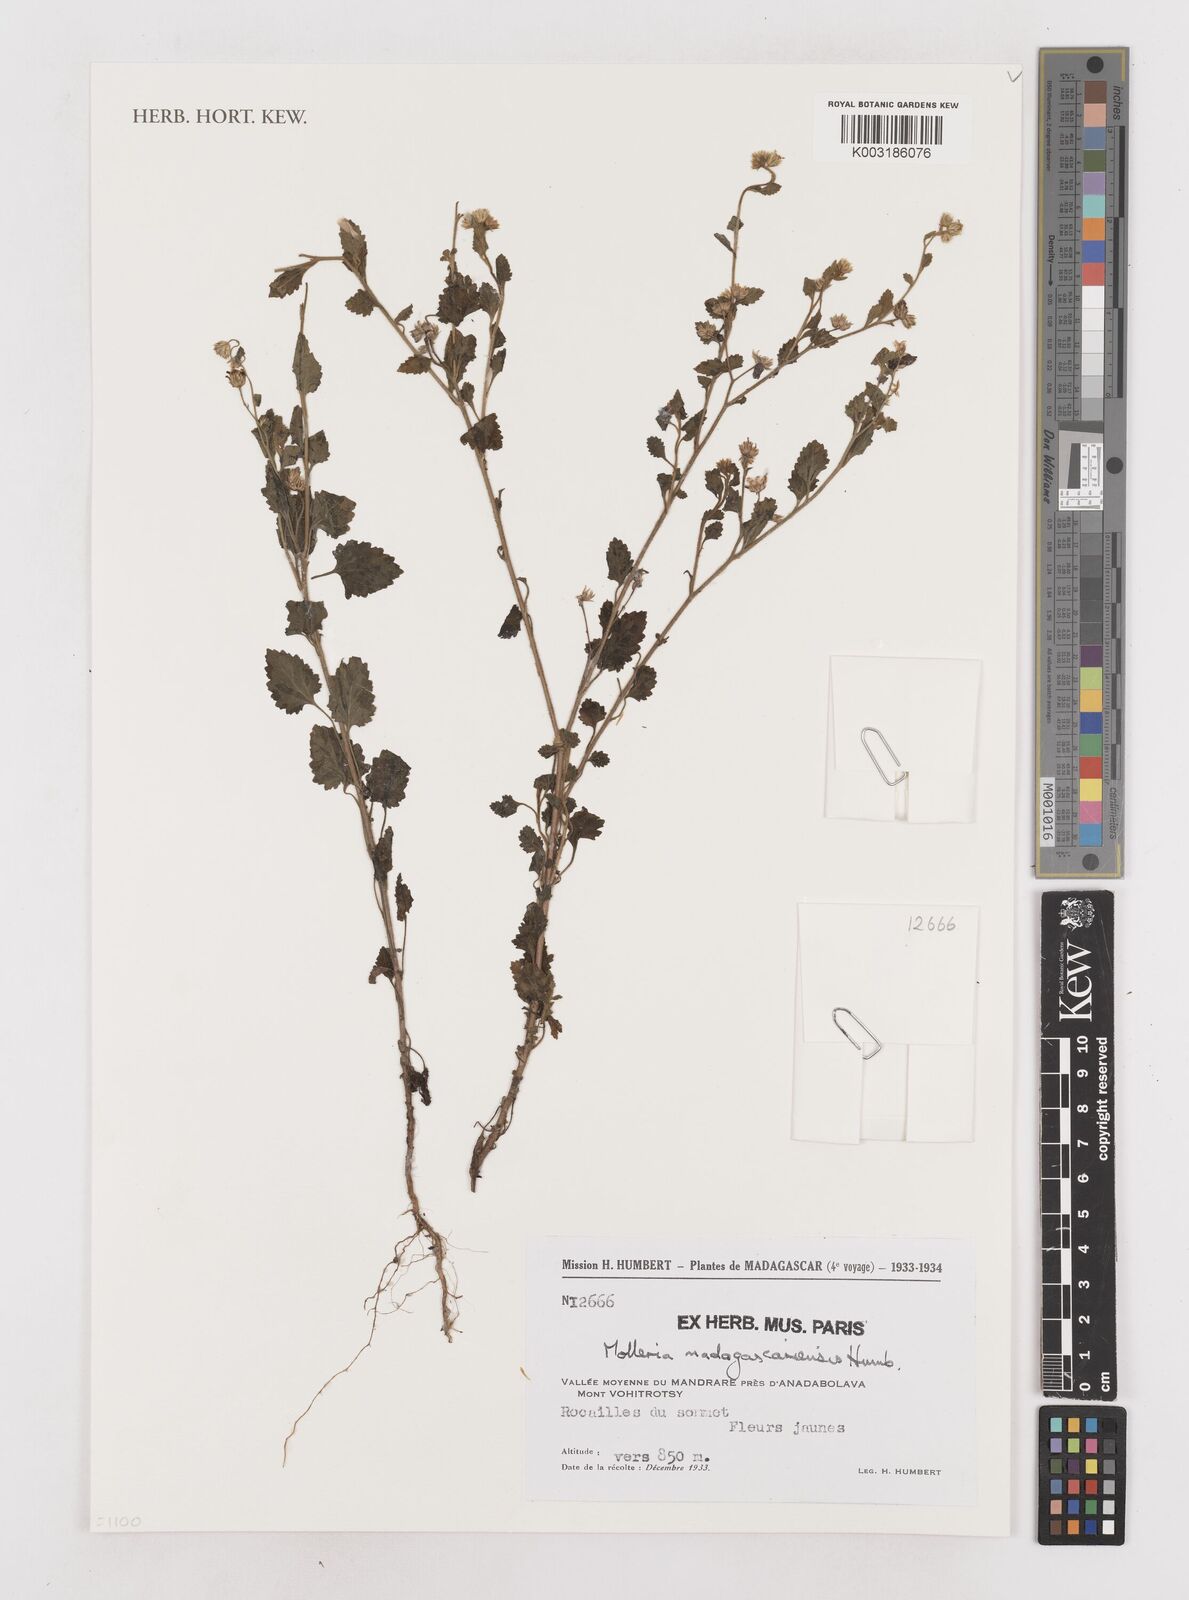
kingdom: Plantae
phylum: Tracheophyta
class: Magnoliopsida
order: Asterales
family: Asteraceae
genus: Calostephane
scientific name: Calostephane madagascariensis
